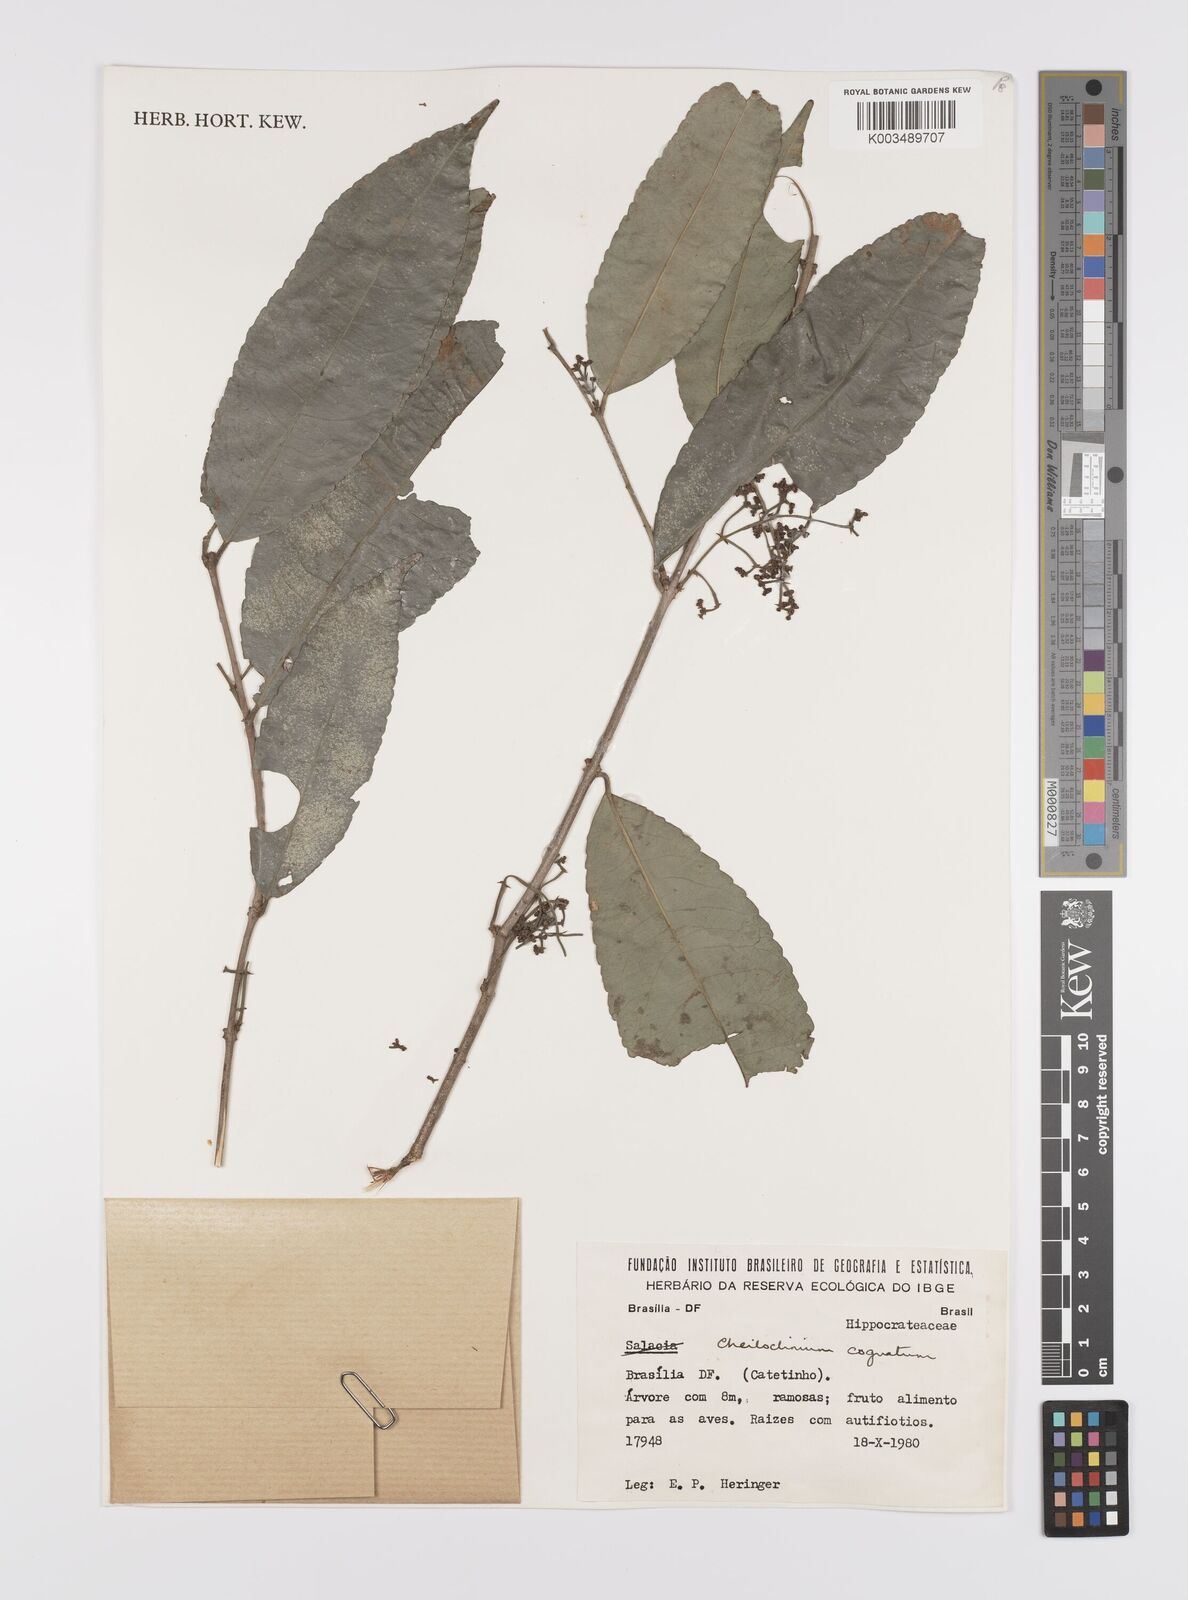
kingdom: Plantae
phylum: Tracheophyta
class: Magnoliopsida
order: Celastrales
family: Celastraceae
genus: Cheiloclinium
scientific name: Cheiloclinium cognatum
